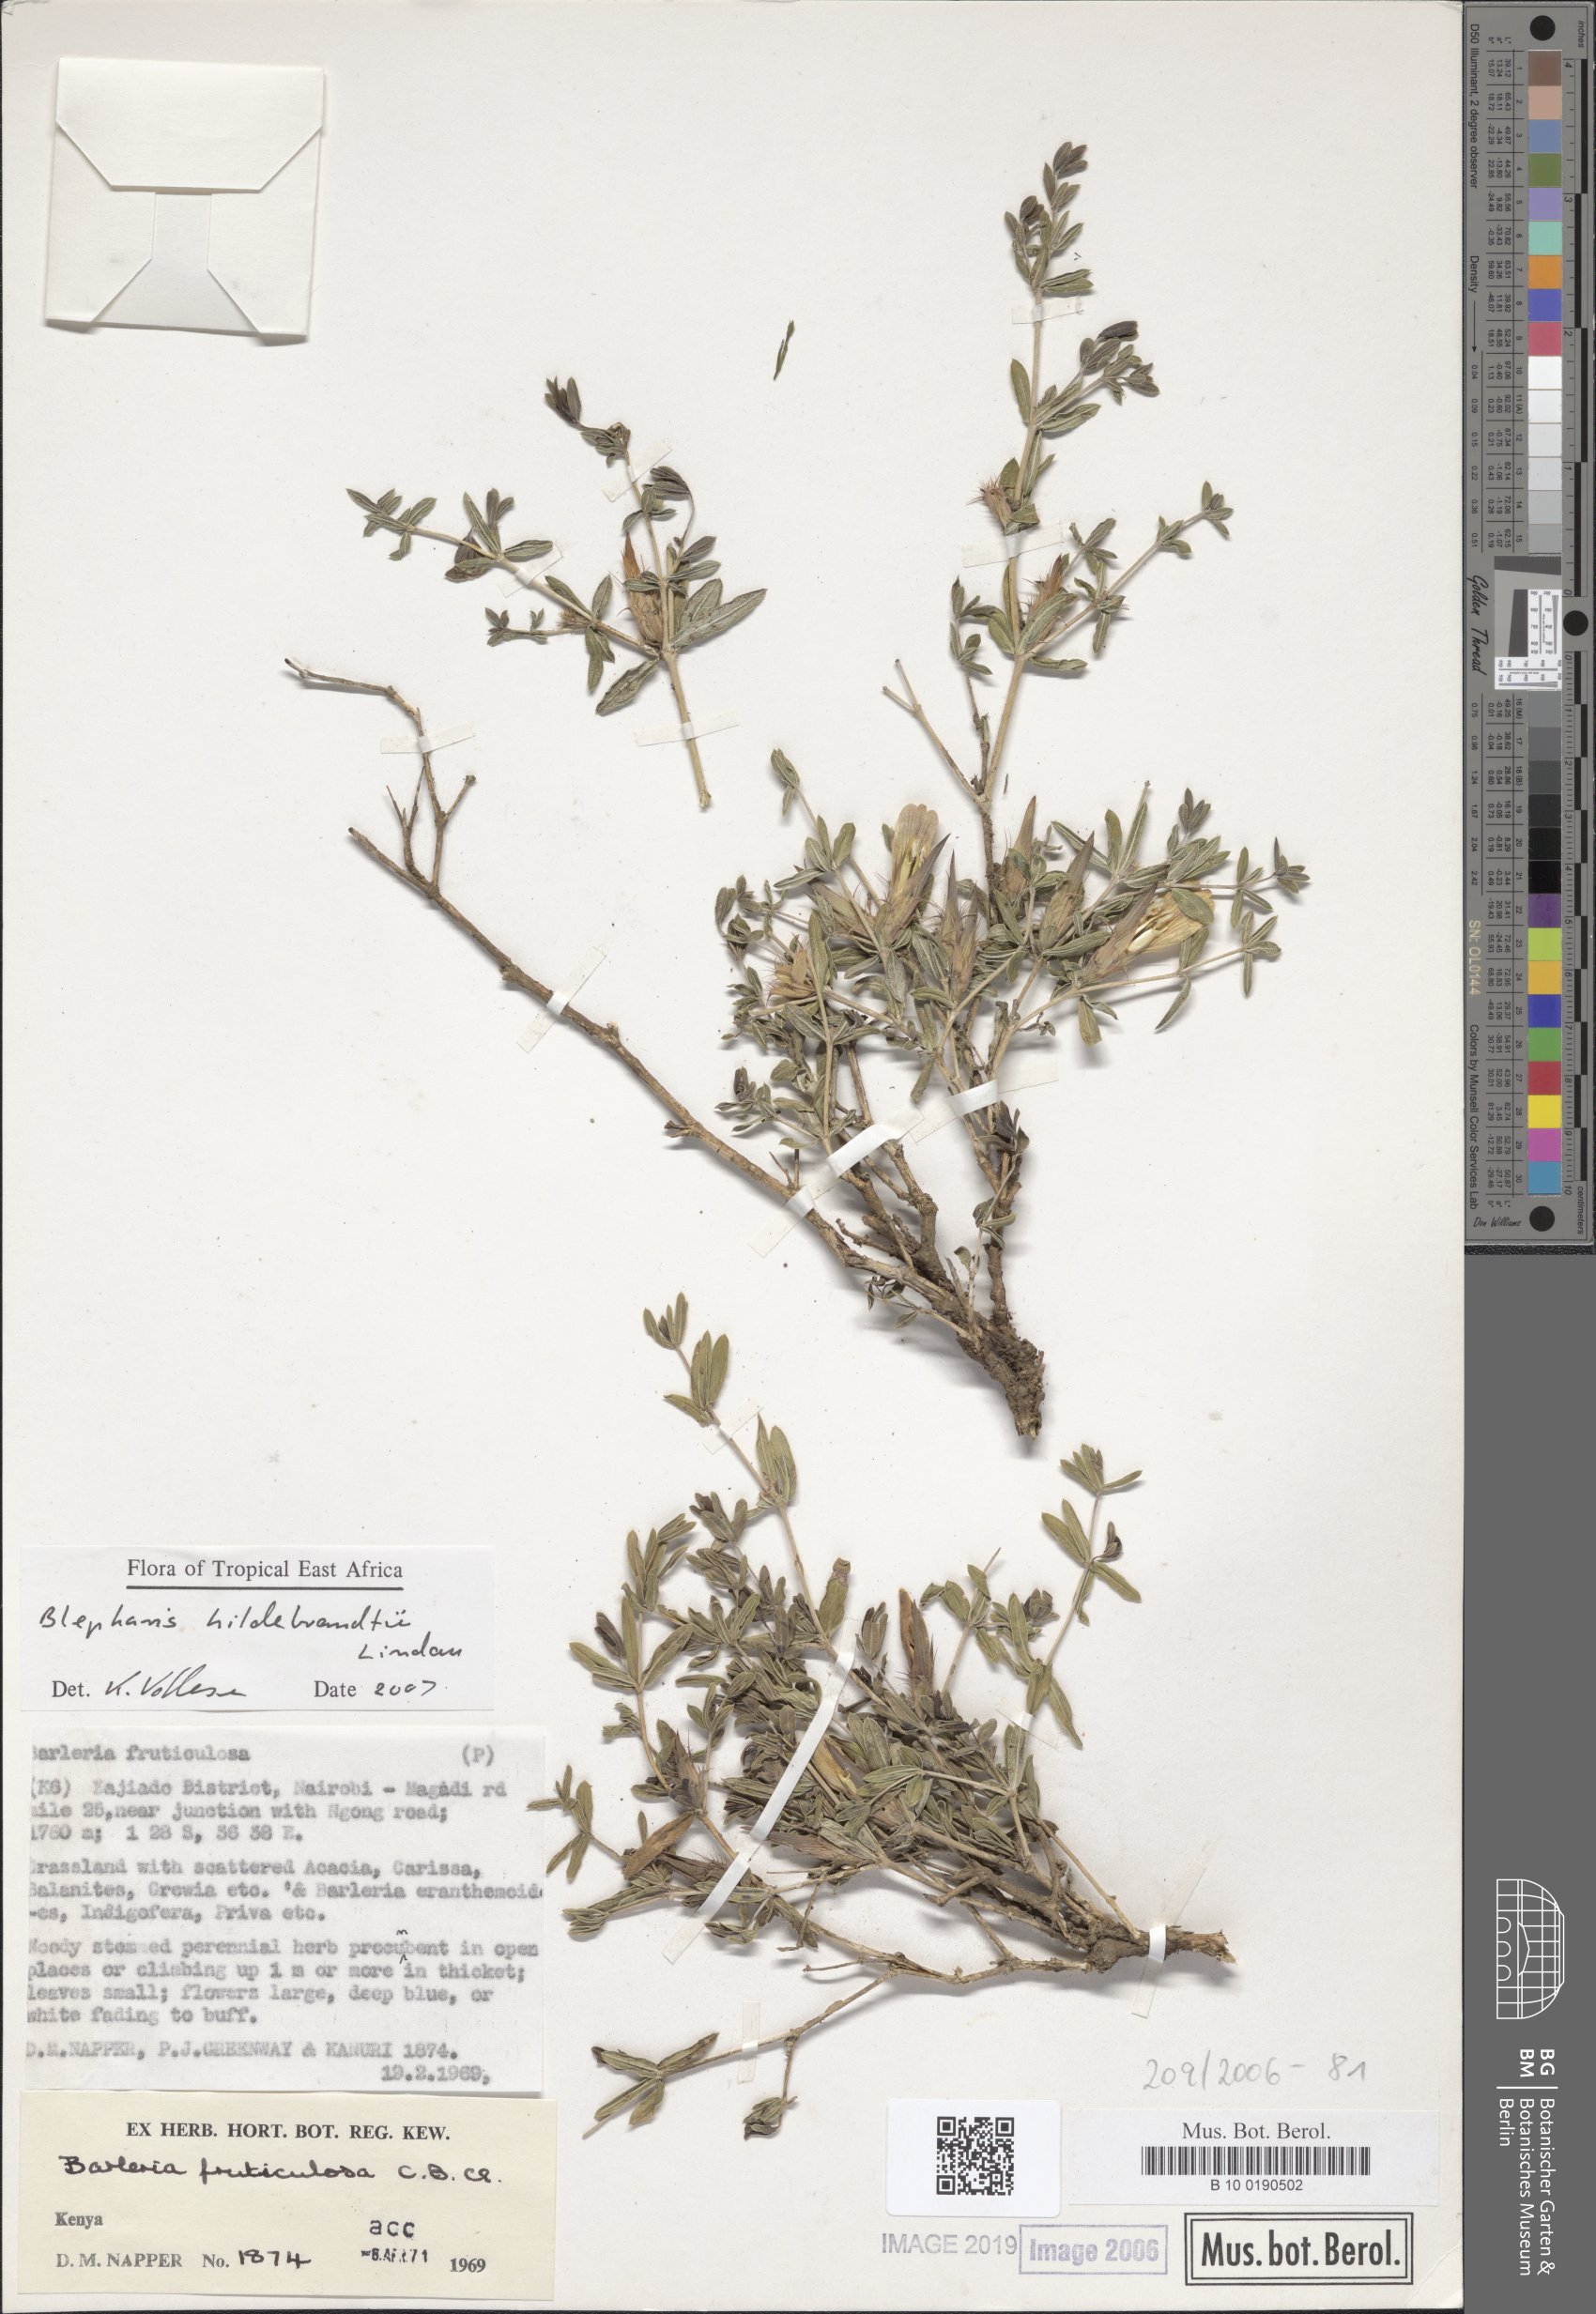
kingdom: Plantae
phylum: Tracheophyta
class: Magnoliopsida
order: Lamiales
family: Acanthaceae
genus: Barleria
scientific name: Barleria
